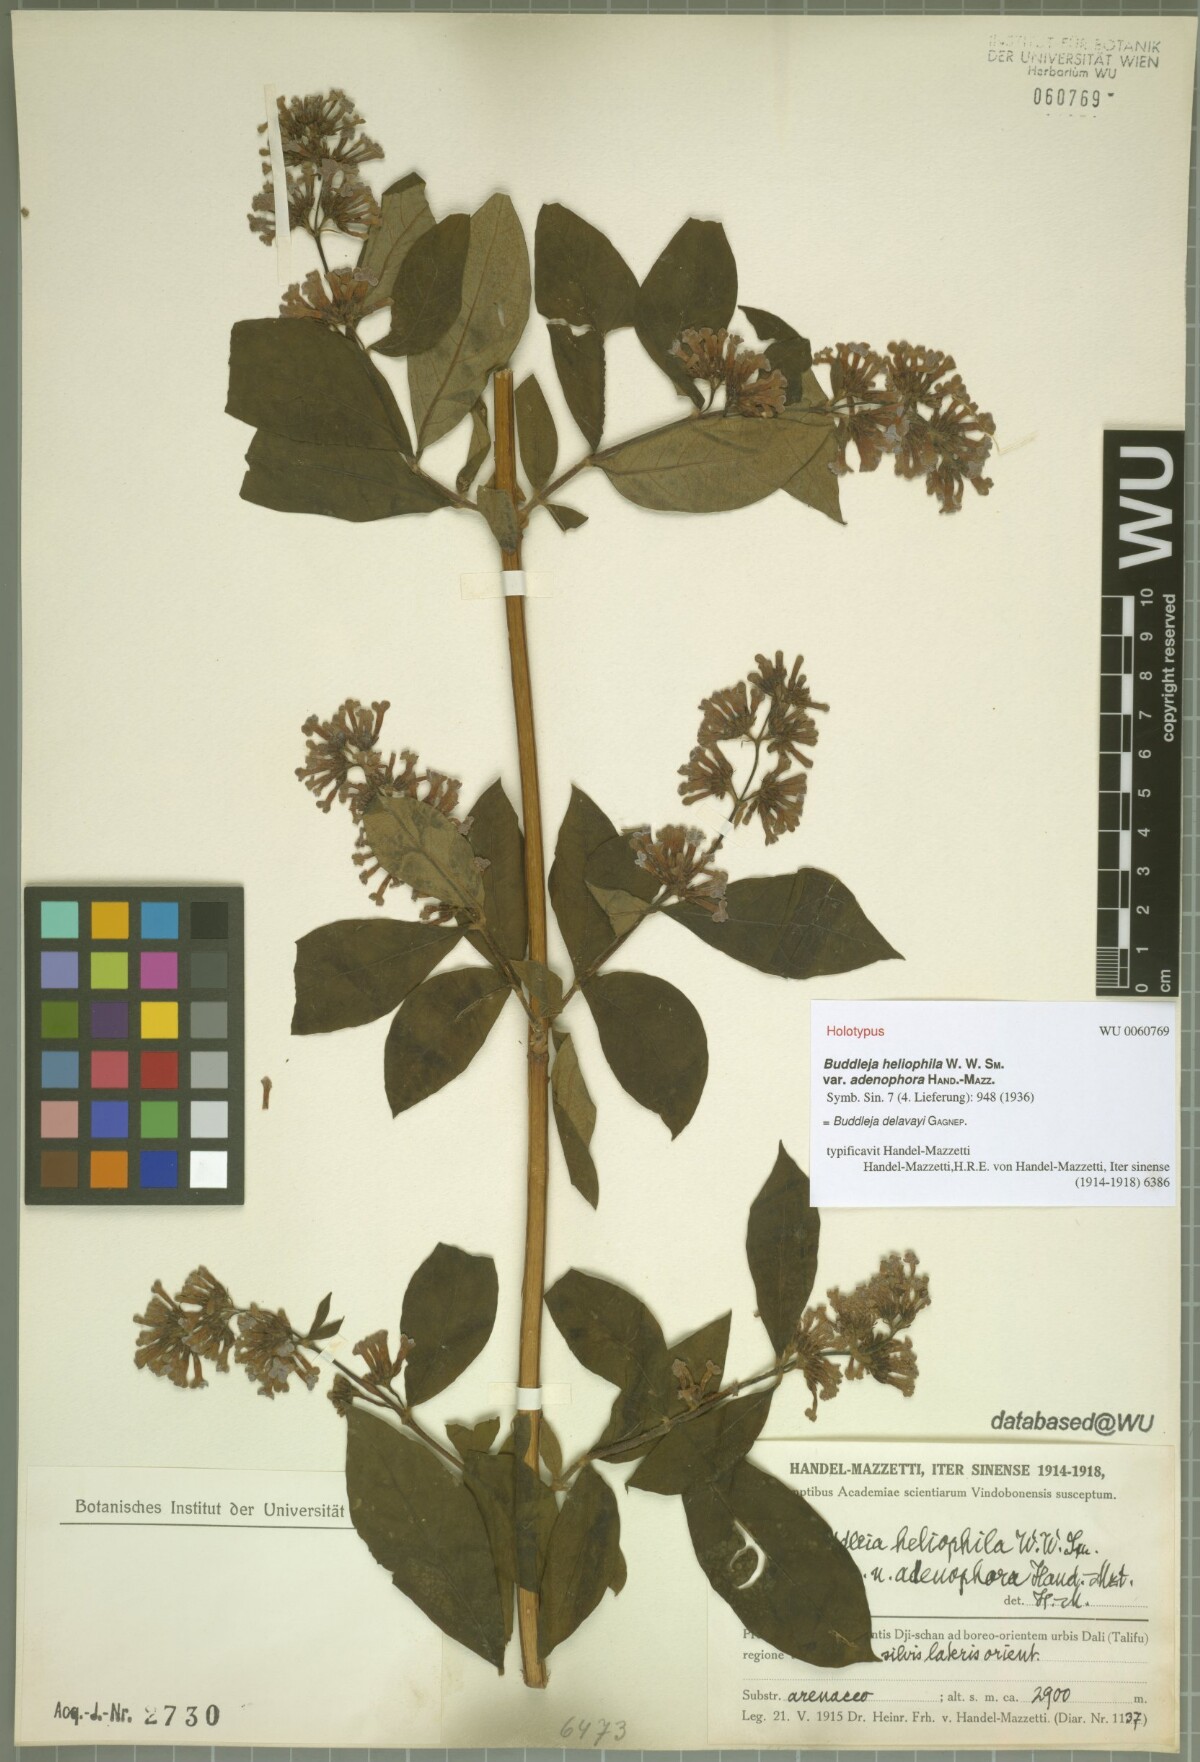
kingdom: Plantae
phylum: Tracheophyta
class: Magnoliopsida
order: Lamiales
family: Scrophulariaceae
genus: Buddleja
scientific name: Buddleja davidii
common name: Butterfly-bush
